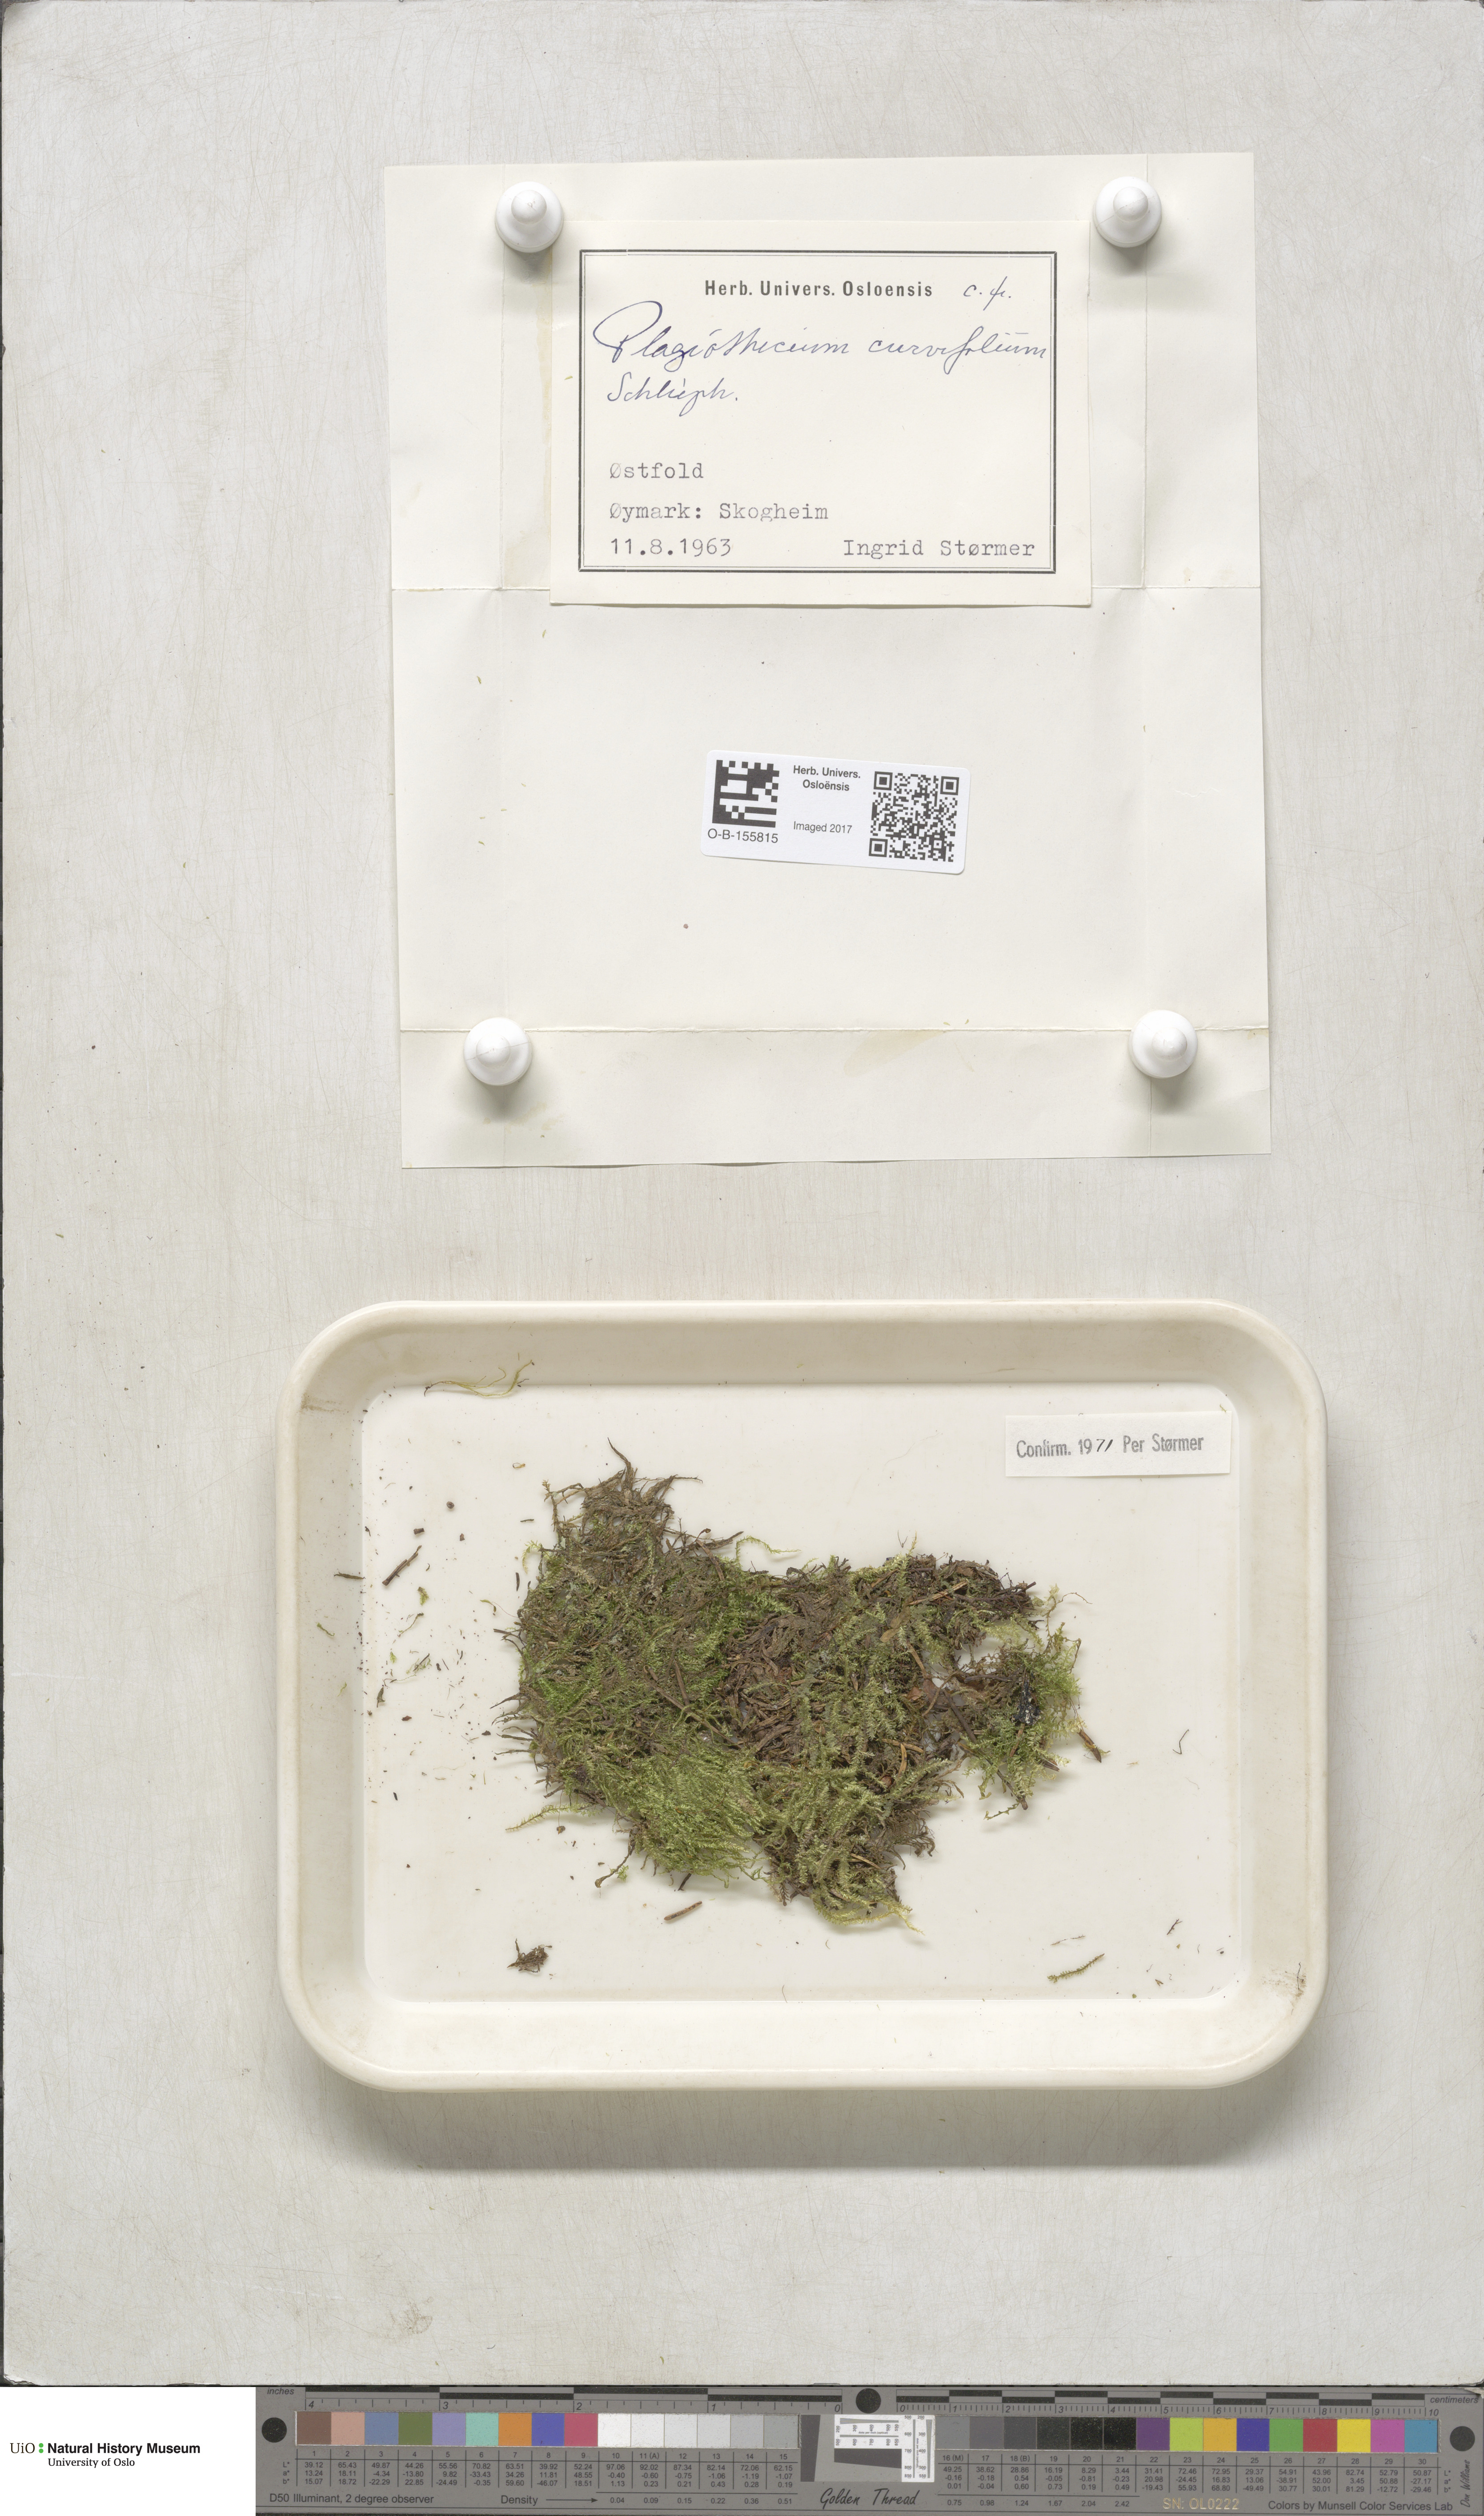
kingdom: Plantae
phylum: Bryophyta
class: Bryopsida
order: Hypnales
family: Plagiotheciaceae
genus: Plagiothecium
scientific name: Plagiothecium curvifolium
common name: Curved silk-moss
